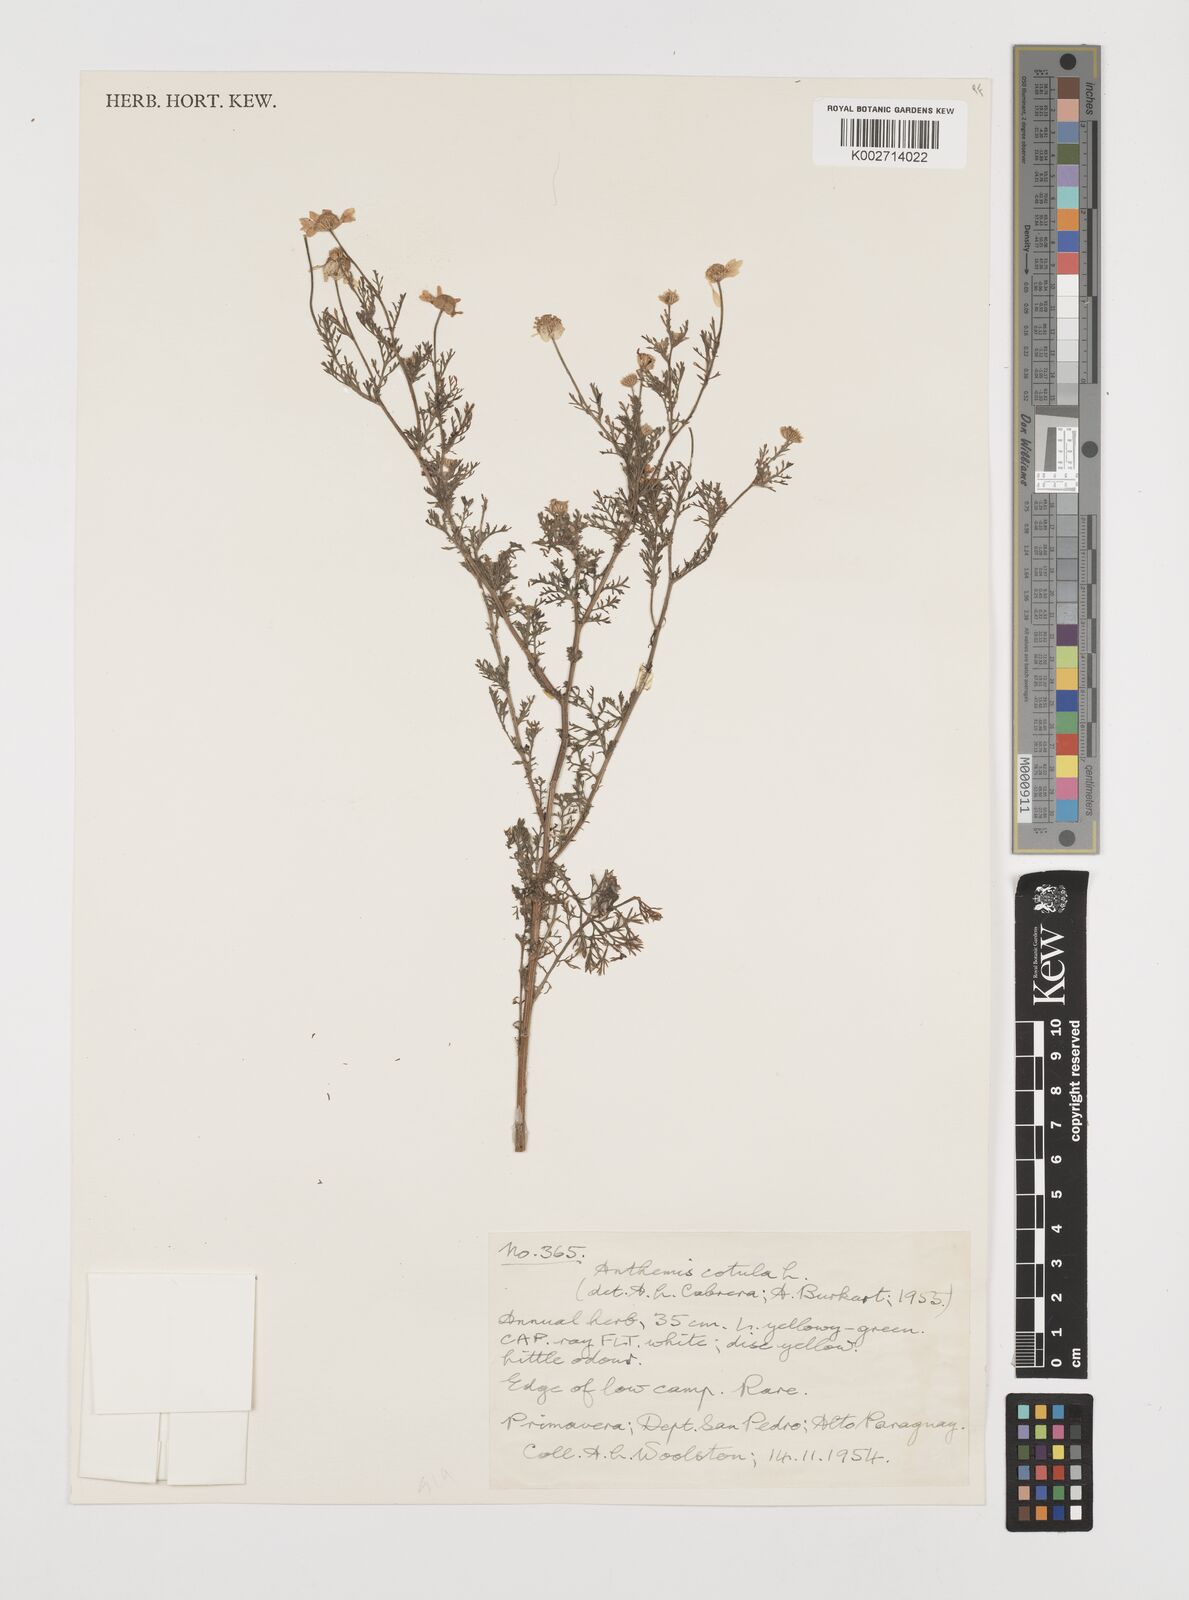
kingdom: Plantae
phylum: Tracheophyta
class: Magnoliopsida
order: Asterales
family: Asteraceae
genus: Anthemis
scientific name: Anthemis cotula
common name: Stinking chamomile
